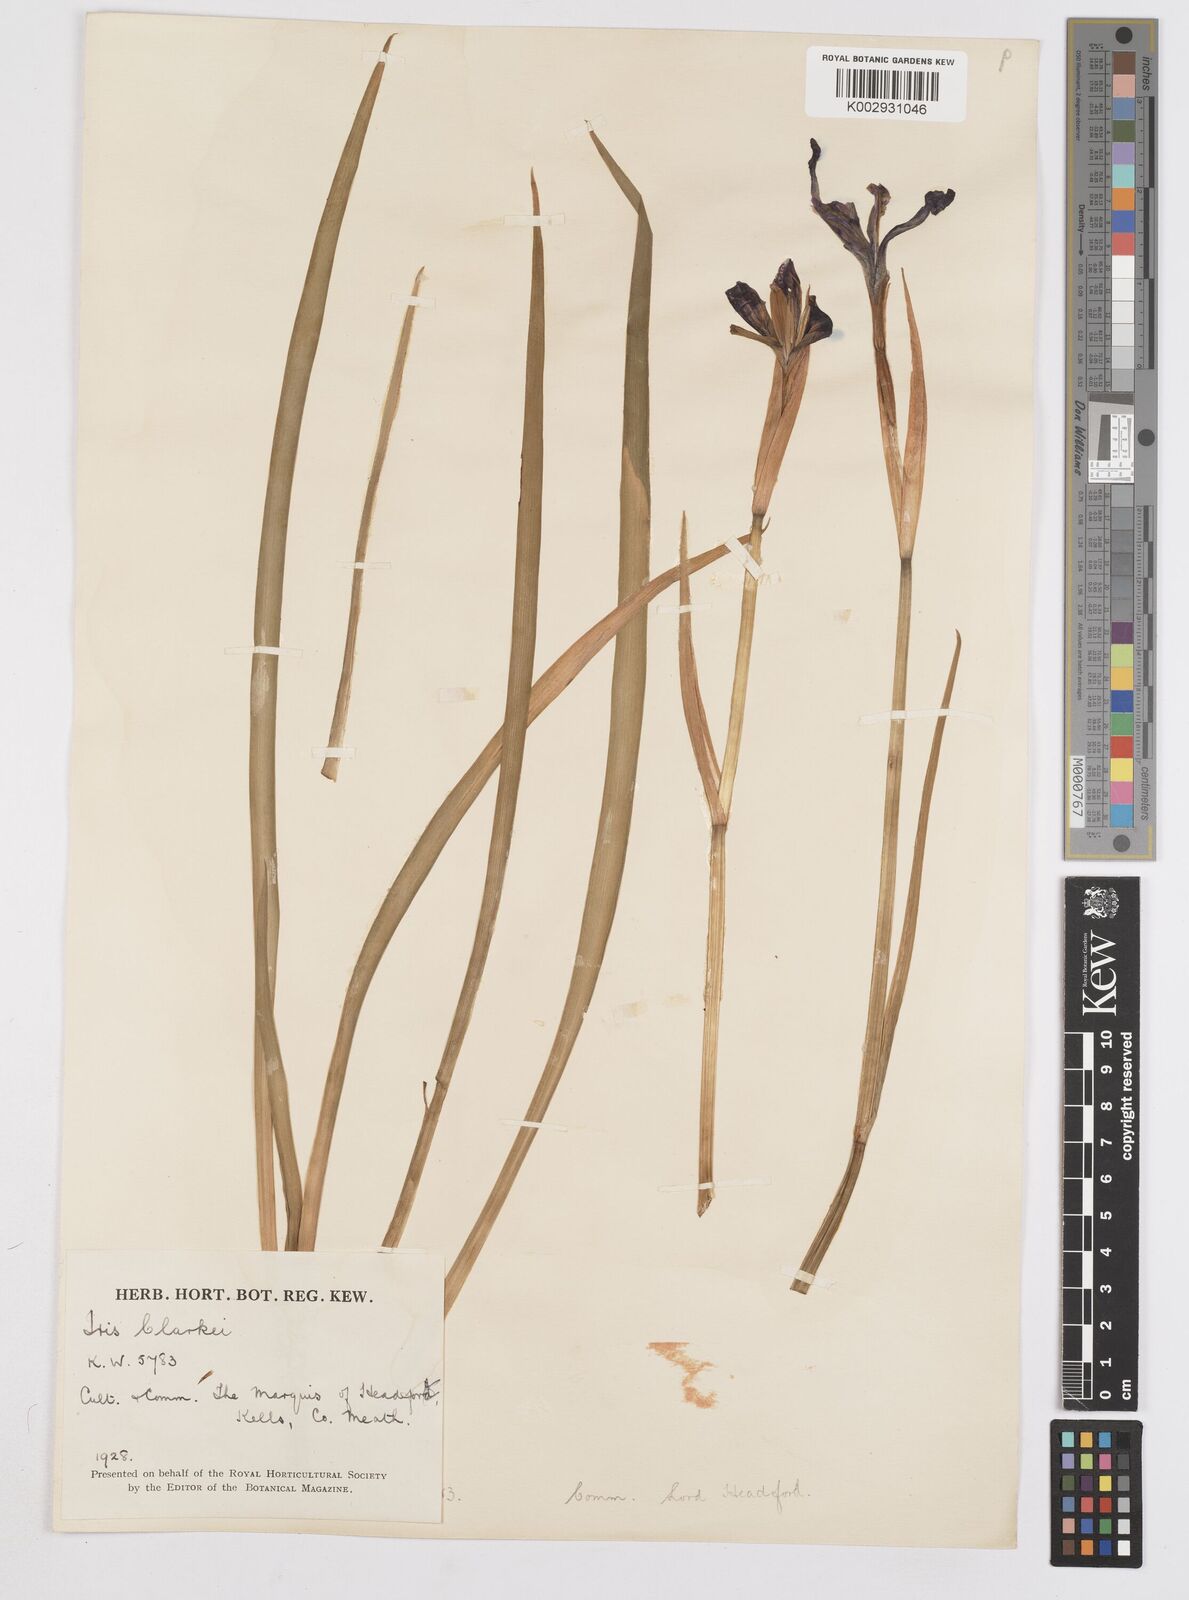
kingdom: Plantae
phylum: Tracheophyta
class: Liliopsida
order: Asparagales
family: Iridaceae
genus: Iris
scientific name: Iris clarkei
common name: Tibet iris
